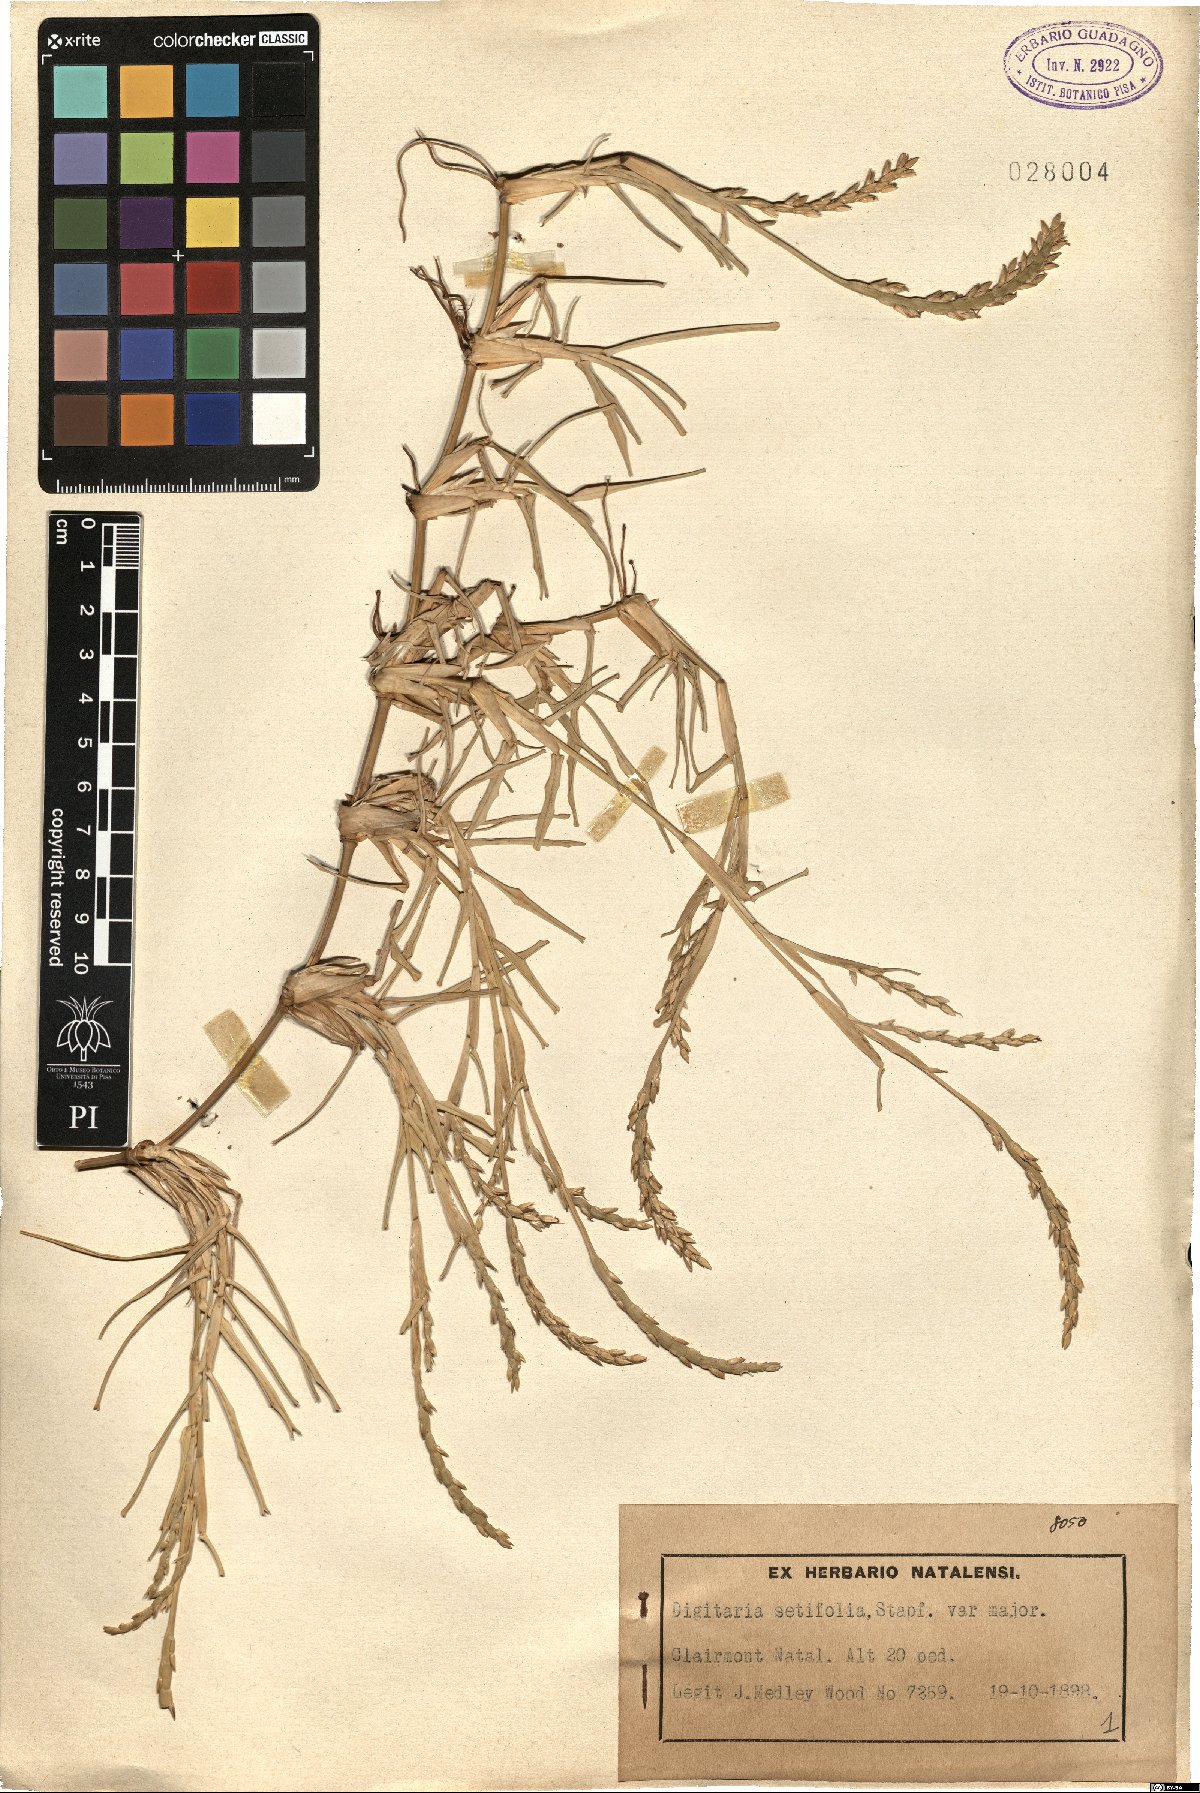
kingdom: Plantae
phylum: Tracheophyta
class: Liliopsida
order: Poales
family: Poaceae
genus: Digitaria
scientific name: Digitaria setifolia
